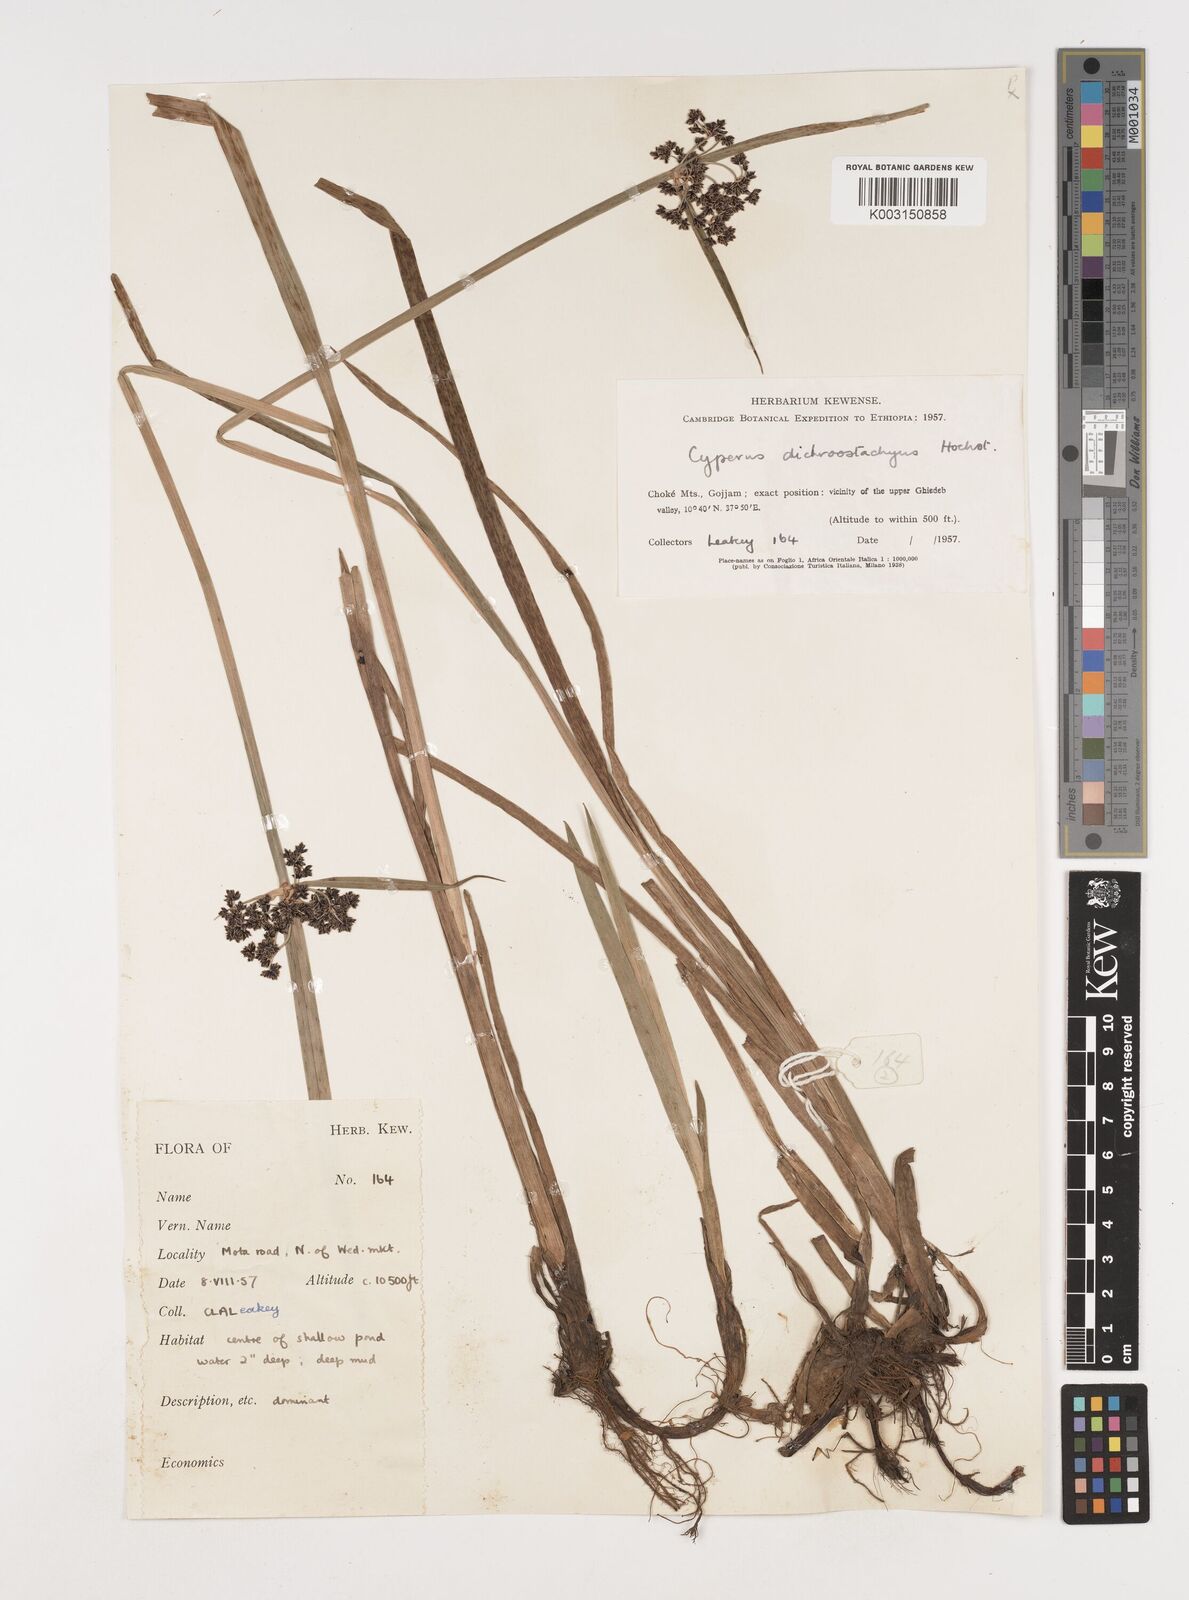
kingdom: Plantae
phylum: Tracheophyta
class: Liliopsida
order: Poales
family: Cyperaceae
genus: Cyperus
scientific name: Cyperus dichrostachyus
